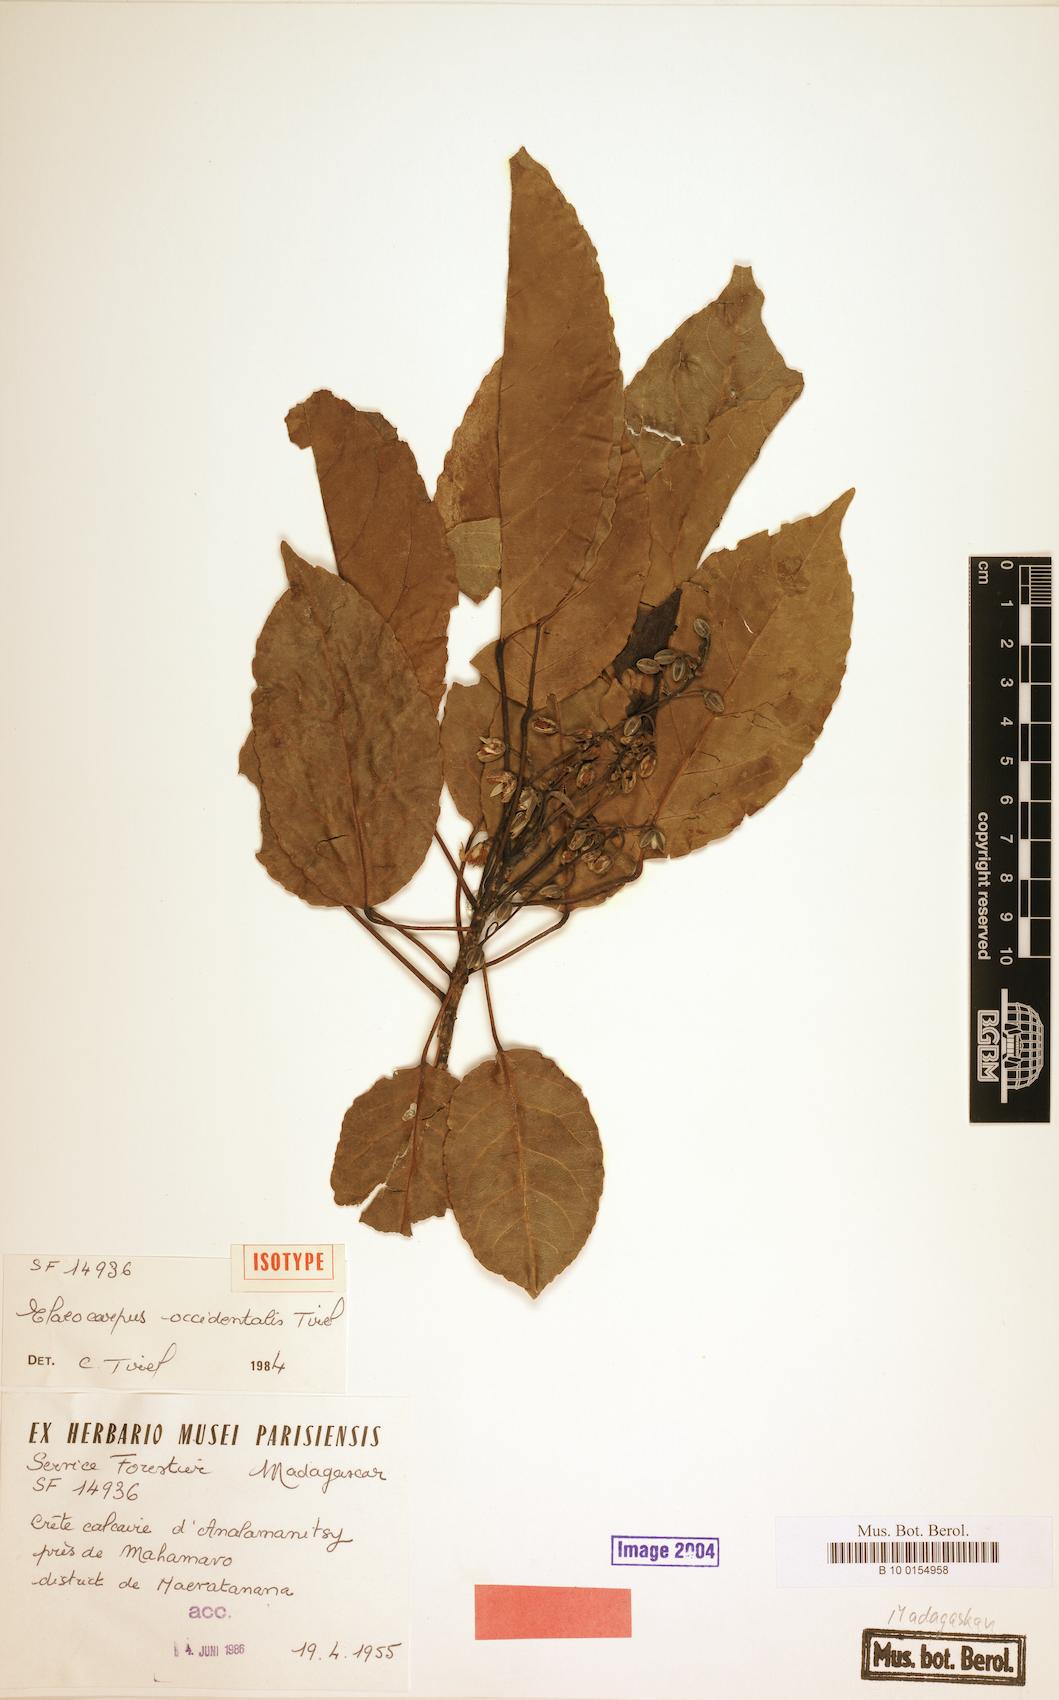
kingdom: Plantae
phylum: Tracheophyta
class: Magnoliopsida
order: Oxalidales
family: Elaeocarpaceae
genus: Elaeocarpus
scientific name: Elaeocarpus occidentalis
